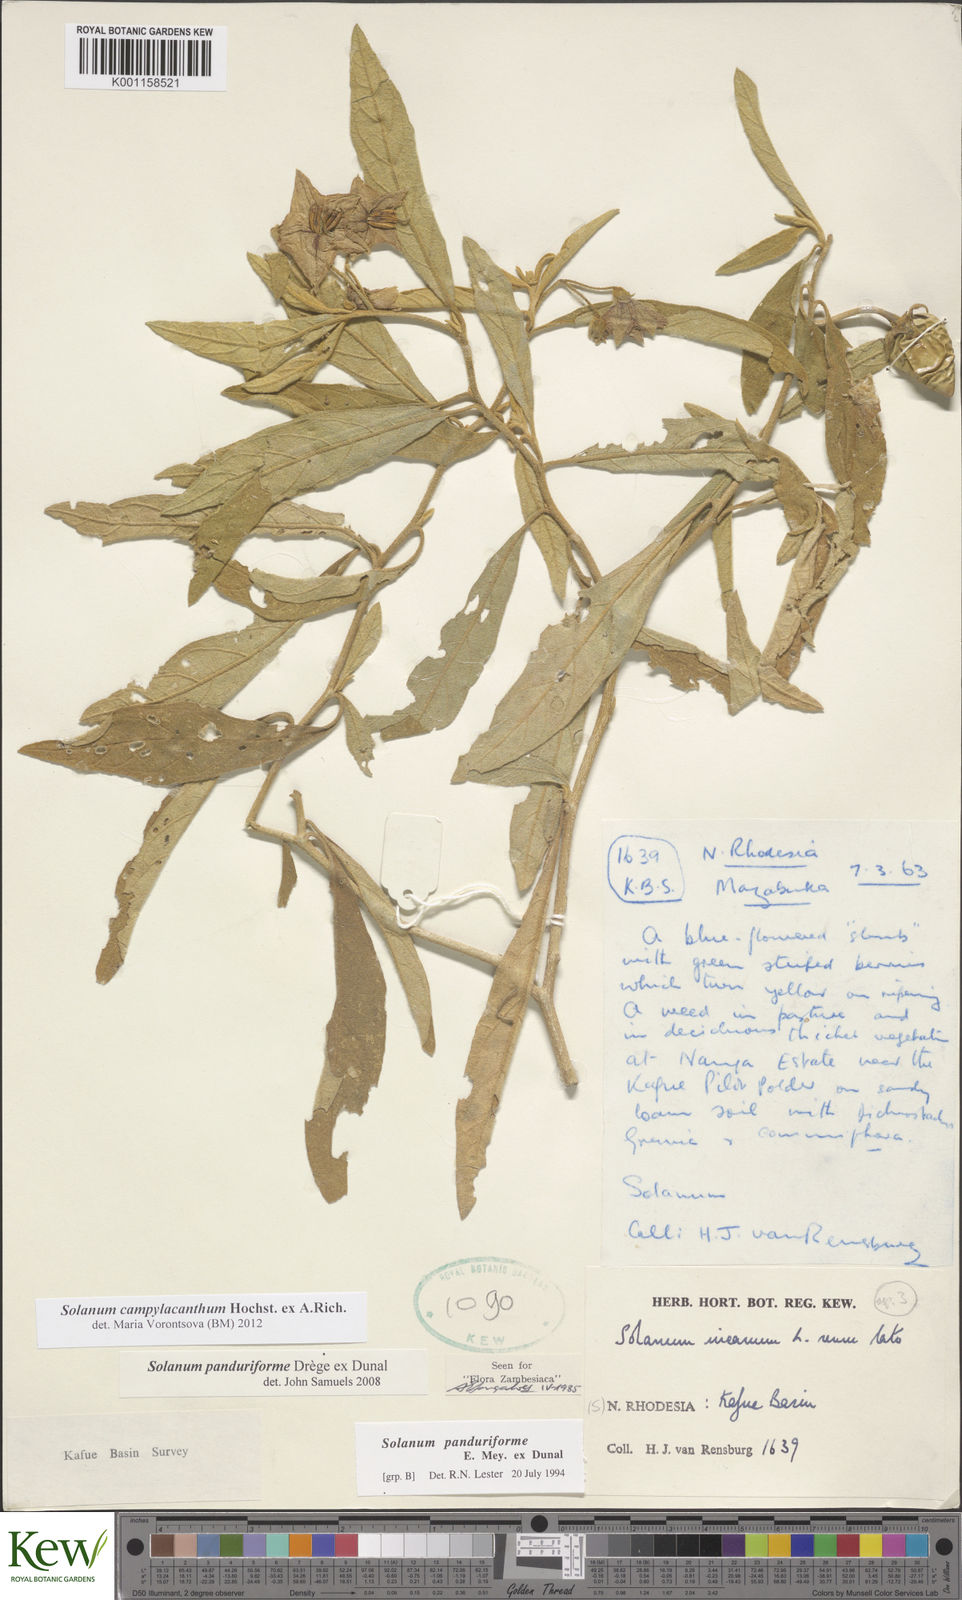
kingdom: Plantae
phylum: Tracheophyta
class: Magnoliopsida
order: Solanales
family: Solanaceae
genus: Solanum
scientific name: Solanum campylacanthum
